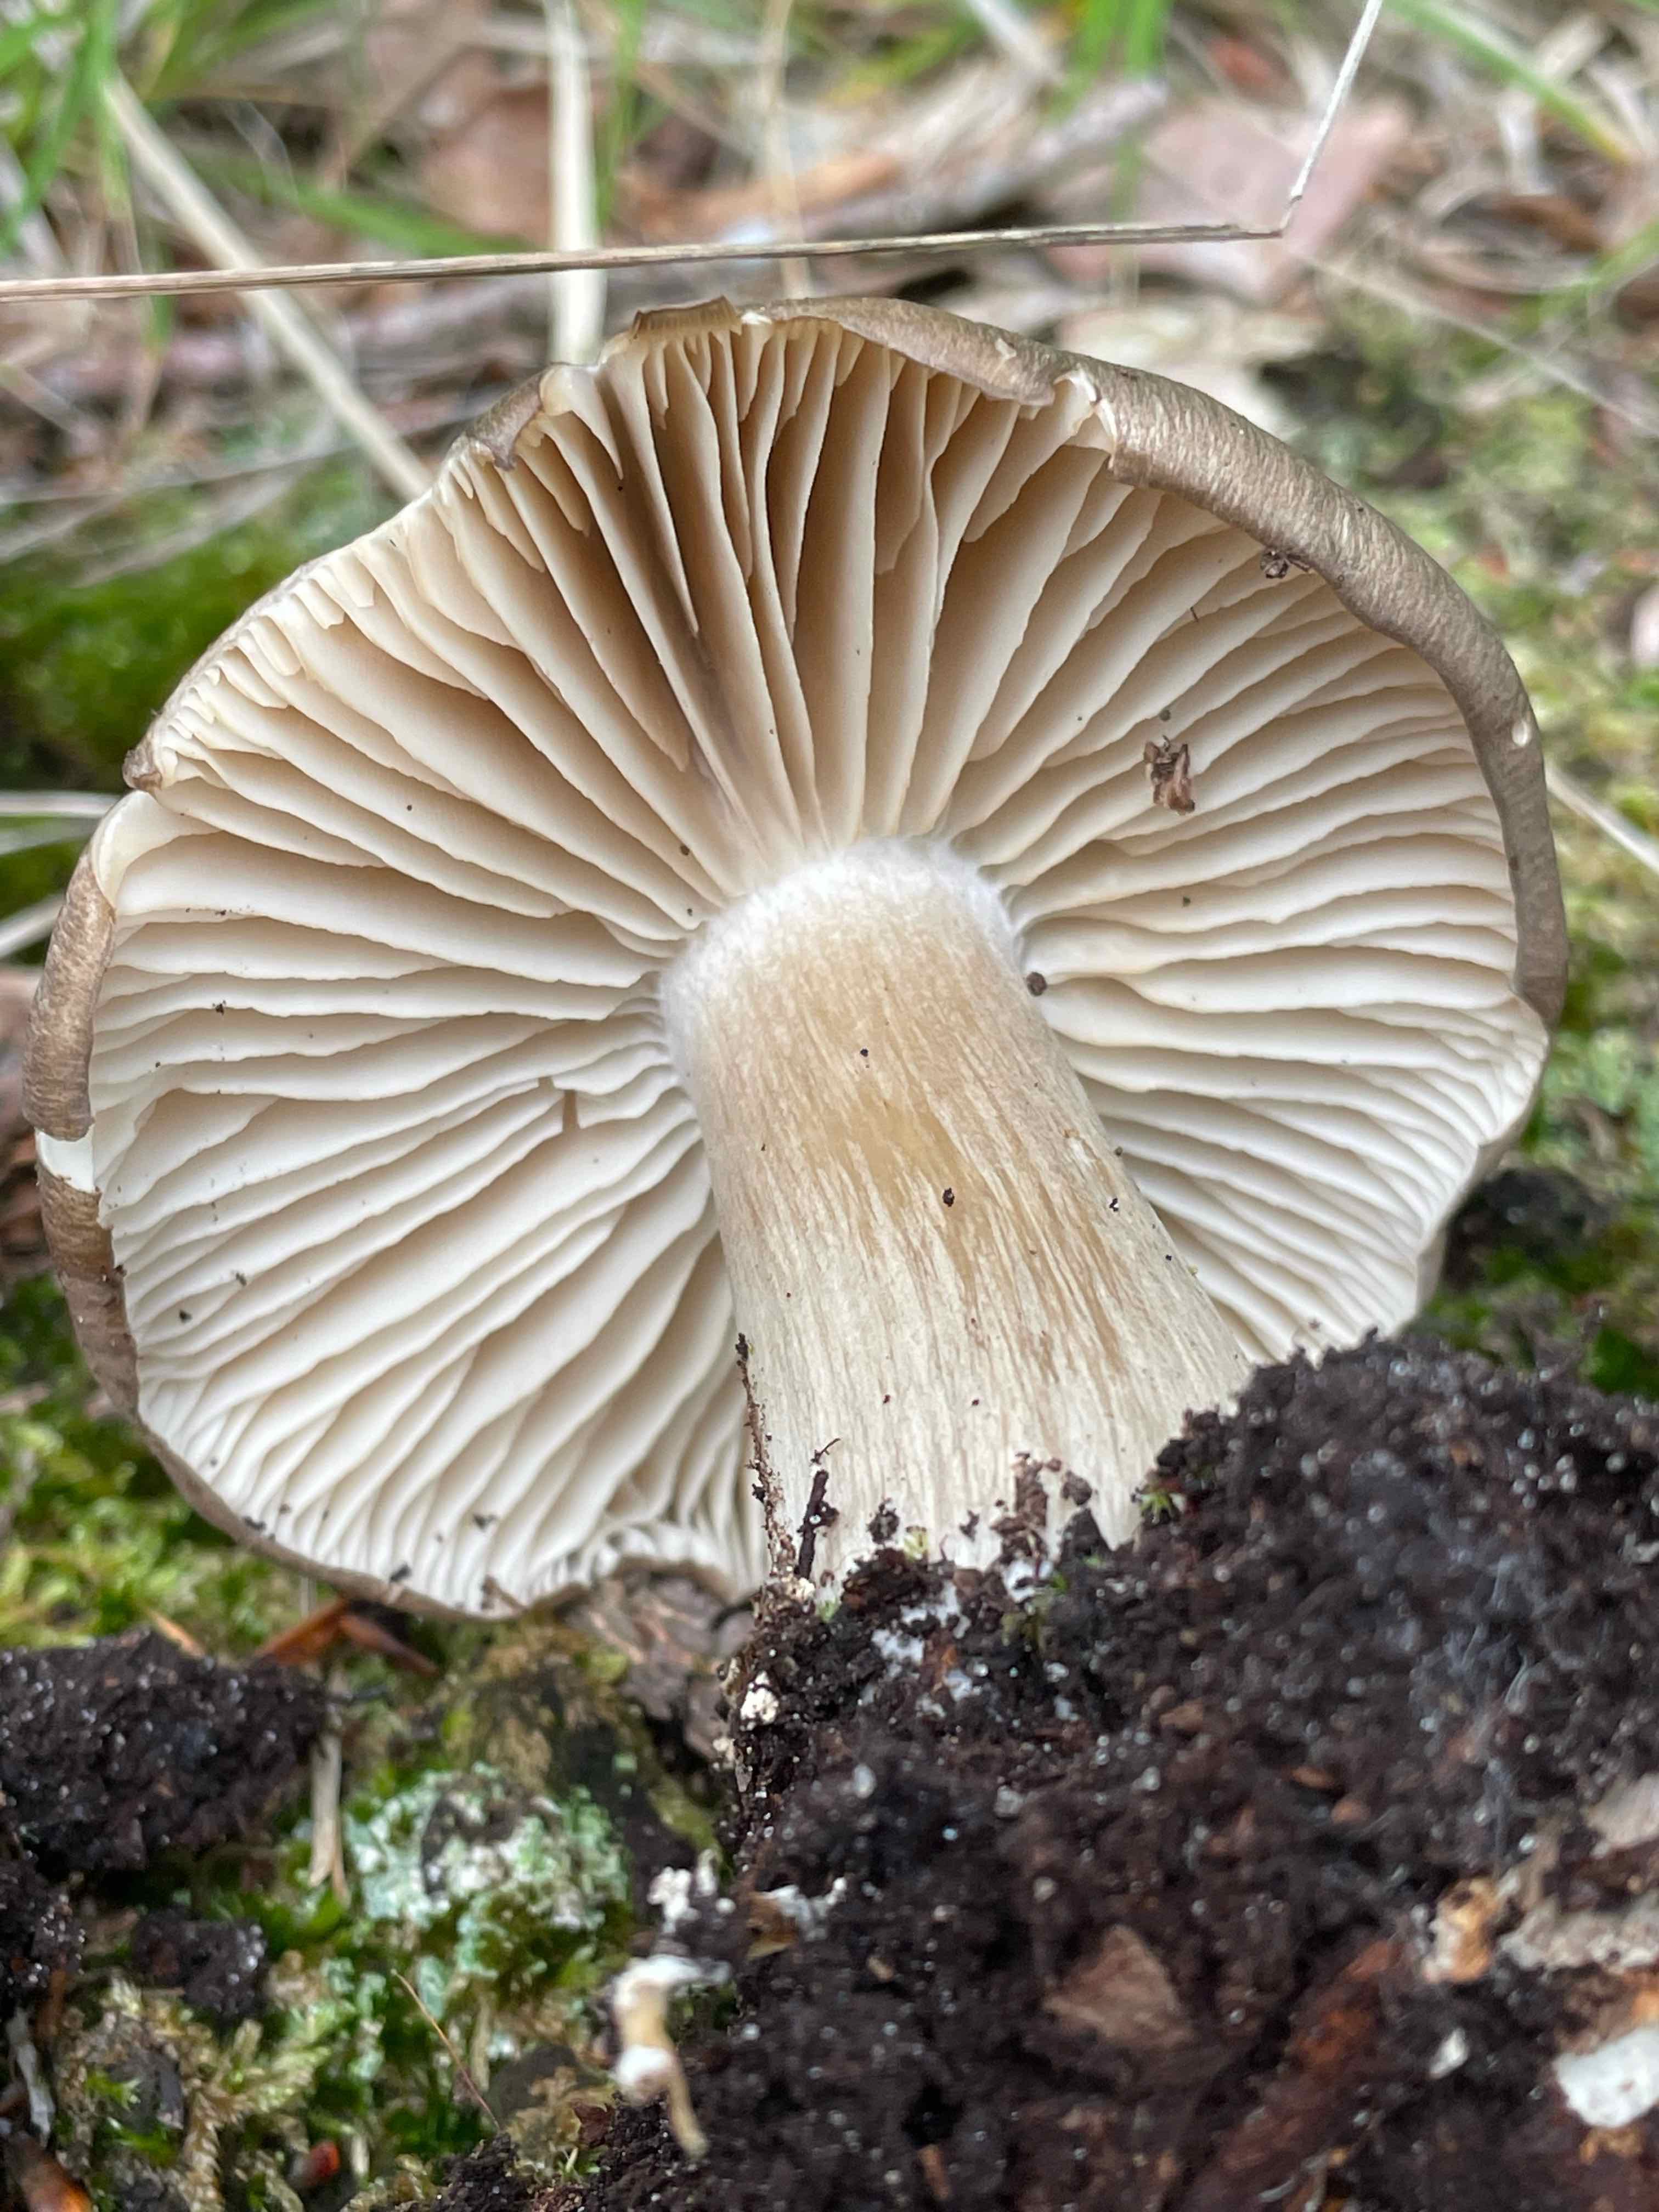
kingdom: Fungi
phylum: Basidiomycota
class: Agaricomycetes
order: Agaricales
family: Tricholomataceae
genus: Megacollybia
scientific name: Megacollybia platyphylla
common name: bredbladet væbnerhat
